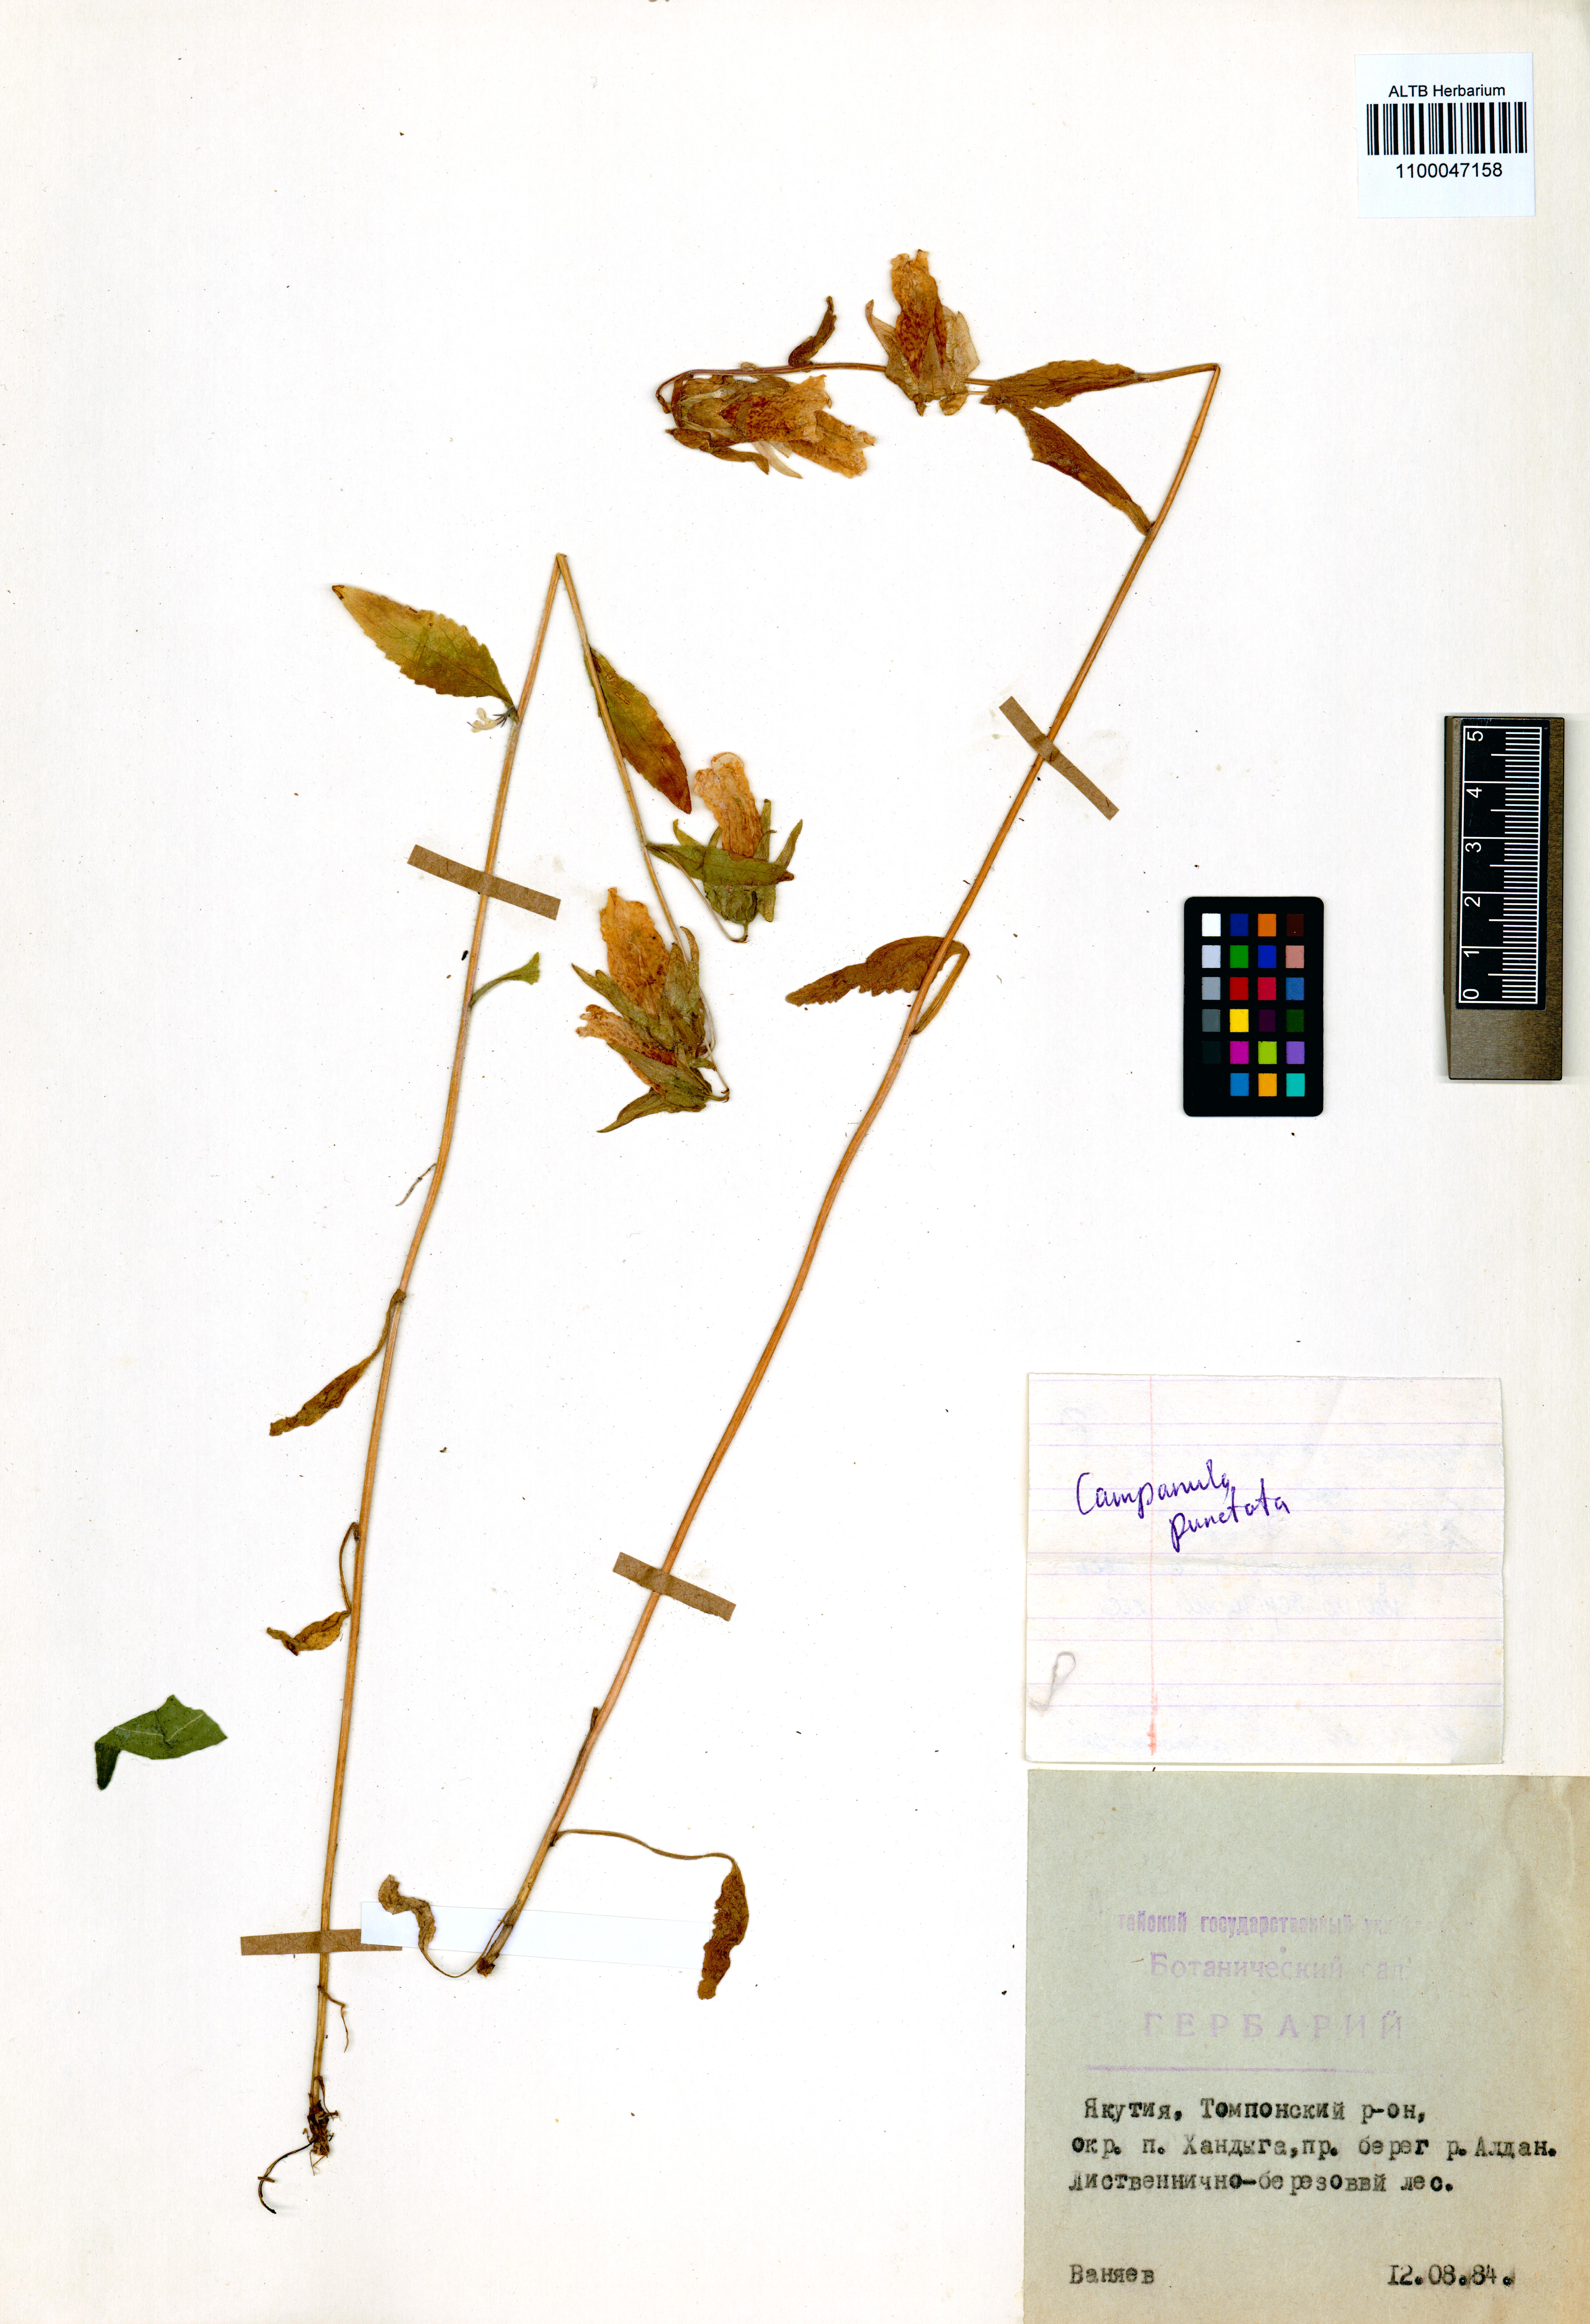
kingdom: Plantae
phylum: Tracheophyta
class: Magnoliopsida
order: Asterales
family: Campanulaceae
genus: Campanula
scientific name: Campanula punctata
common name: Spotted bellflower
